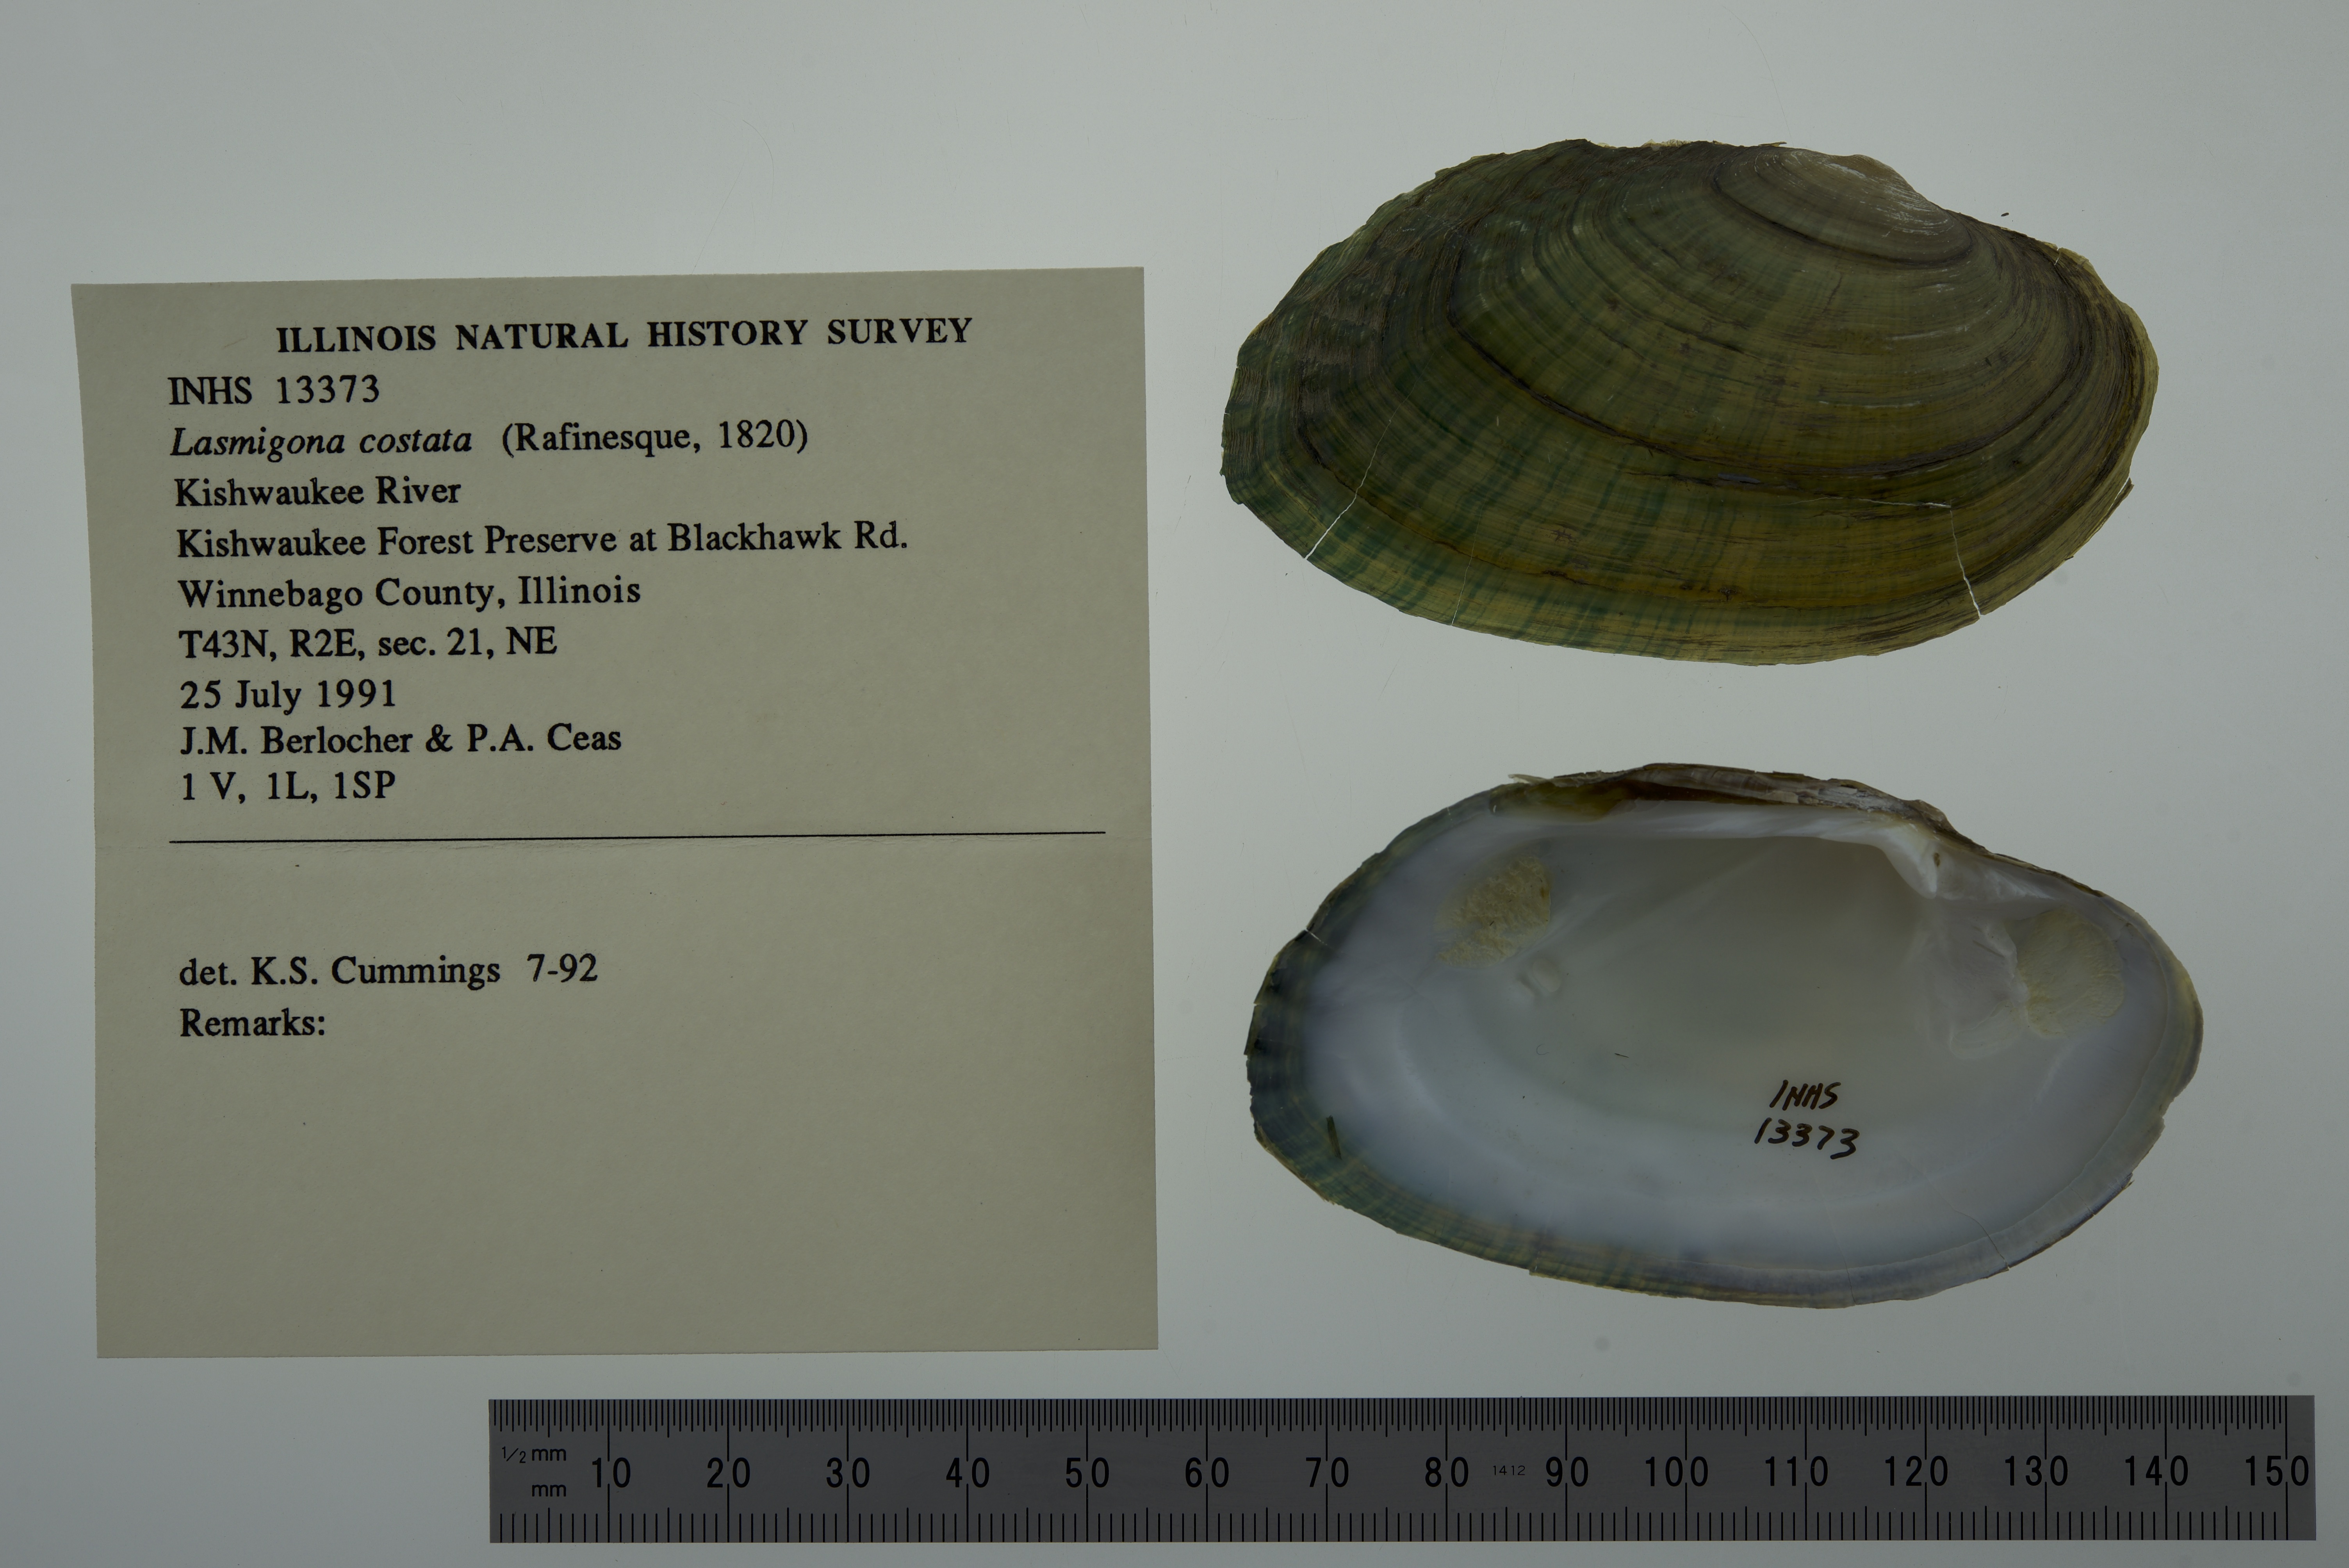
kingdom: Animalia
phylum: Mollusca
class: Bivalvia
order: Unionida
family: Unionidae
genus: Lasmigona
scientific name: Lasmigona costata
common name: Flutedshell
